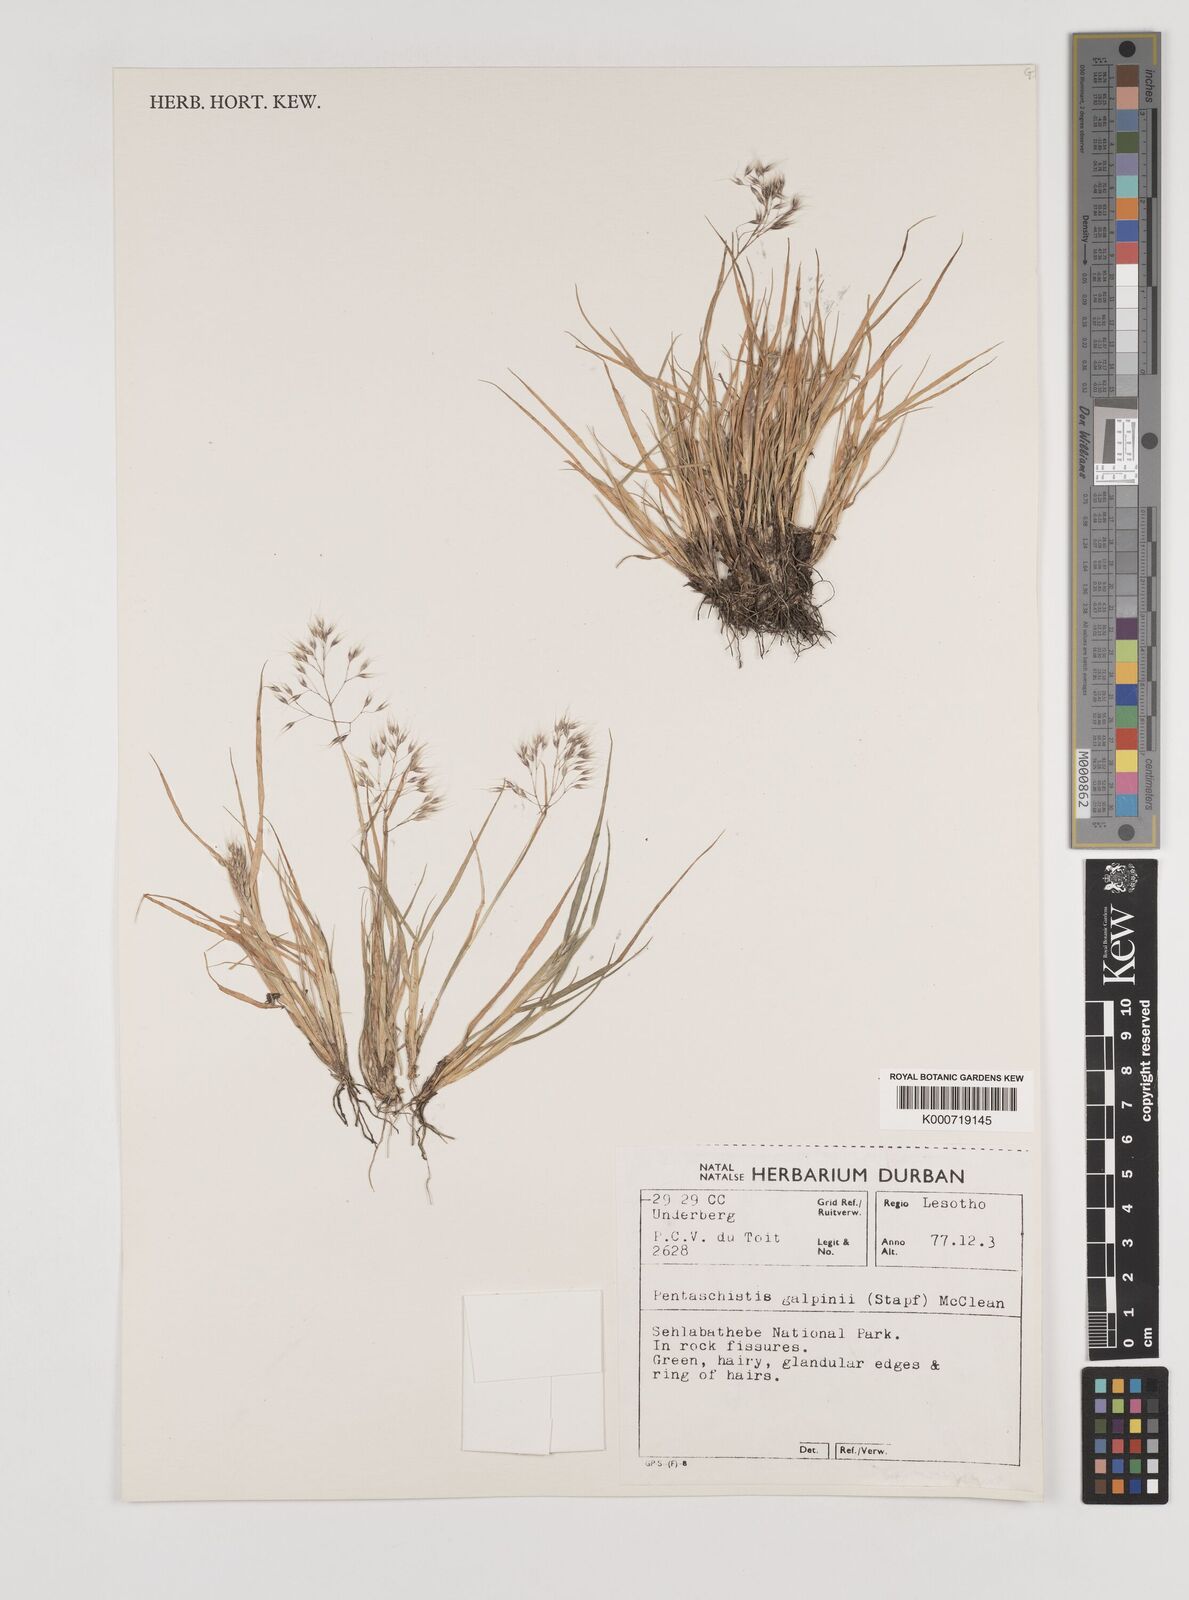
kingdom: Plantae
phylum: Tracheophyta
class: Liliopsida
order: Poales
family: Poaceae
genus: Pentameris
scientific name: Pentameris galpinii
